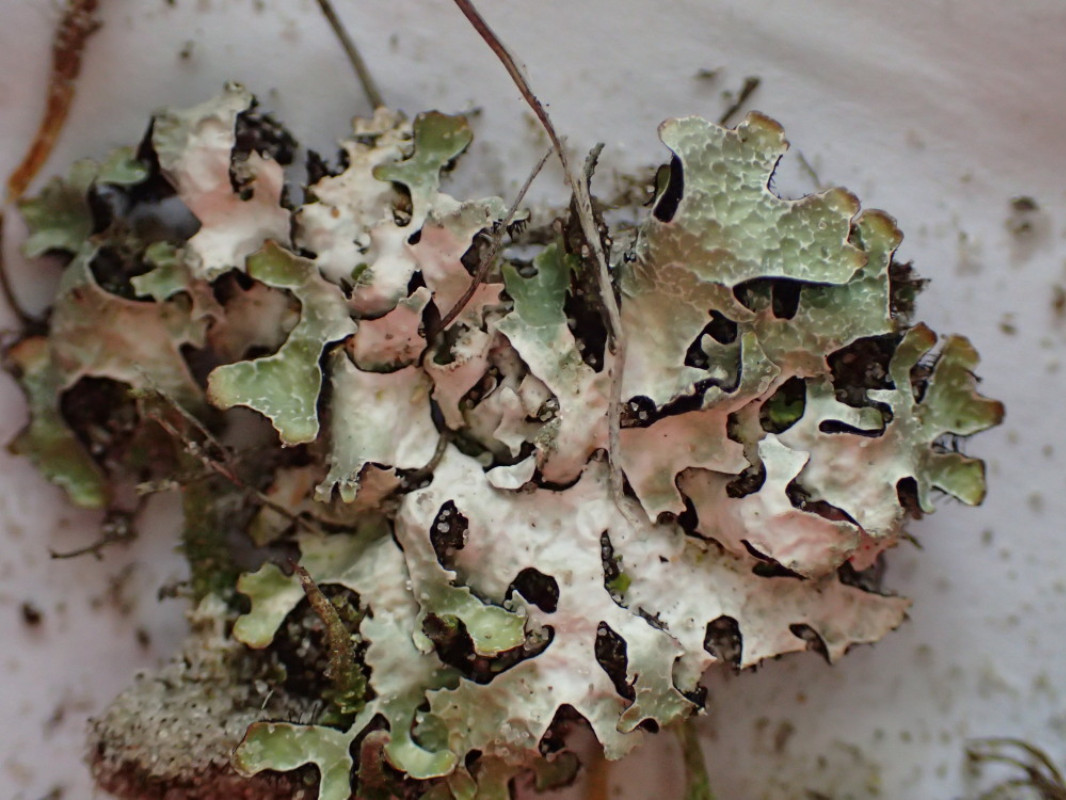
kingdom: Fungi
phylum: Ascomycota
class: Lecanoromycetes
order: Lecanorales
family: Parmeliaceae
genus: Parmelia
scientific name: Parmelia sulcata
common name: rynket skållav
